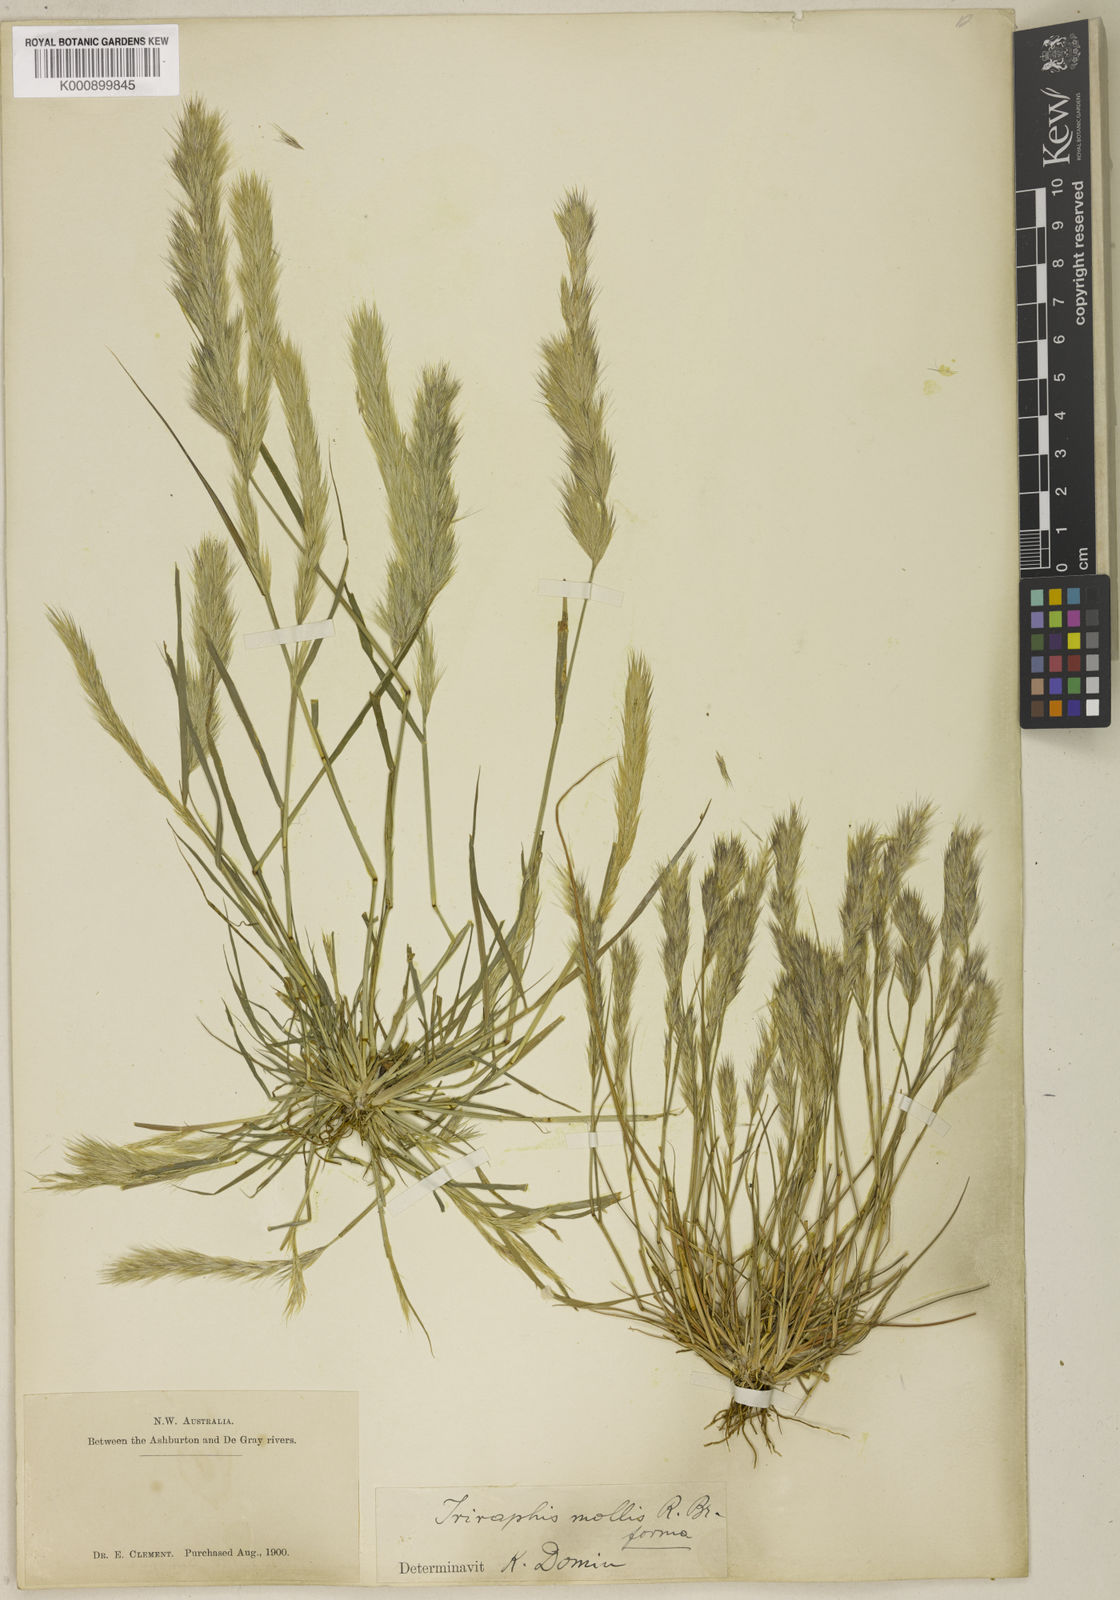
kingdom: Plantae
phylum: Tracheophyta
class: Liliopsida
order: Poales
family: Poaceae
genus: Triraphis
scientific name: Triraphis mollis
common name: Purple needlegrass
